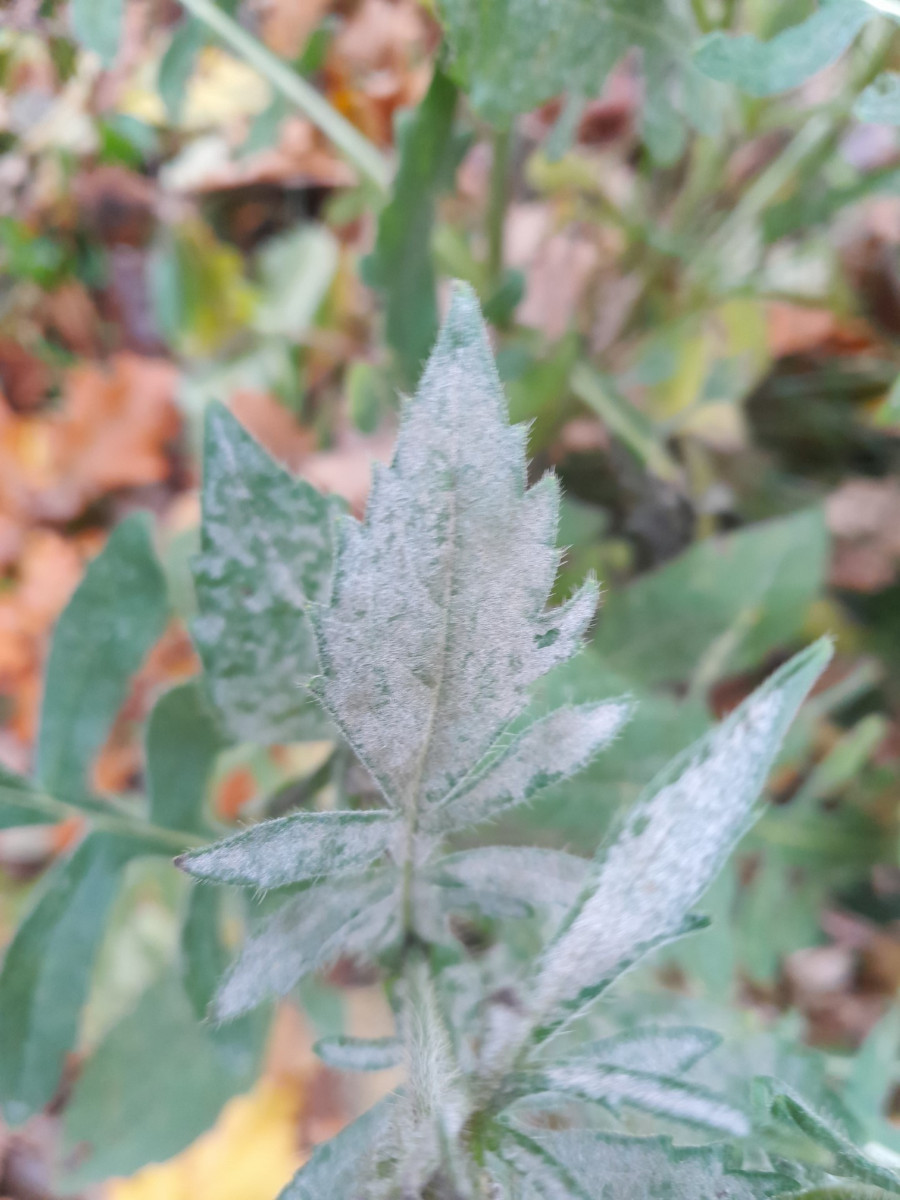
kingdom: Fungi
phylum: Ascomycota
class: Leotiomycetes
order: Helotiales
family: Erysiphaceae
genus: Erysiphe
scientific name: Erysiphe knautiae
